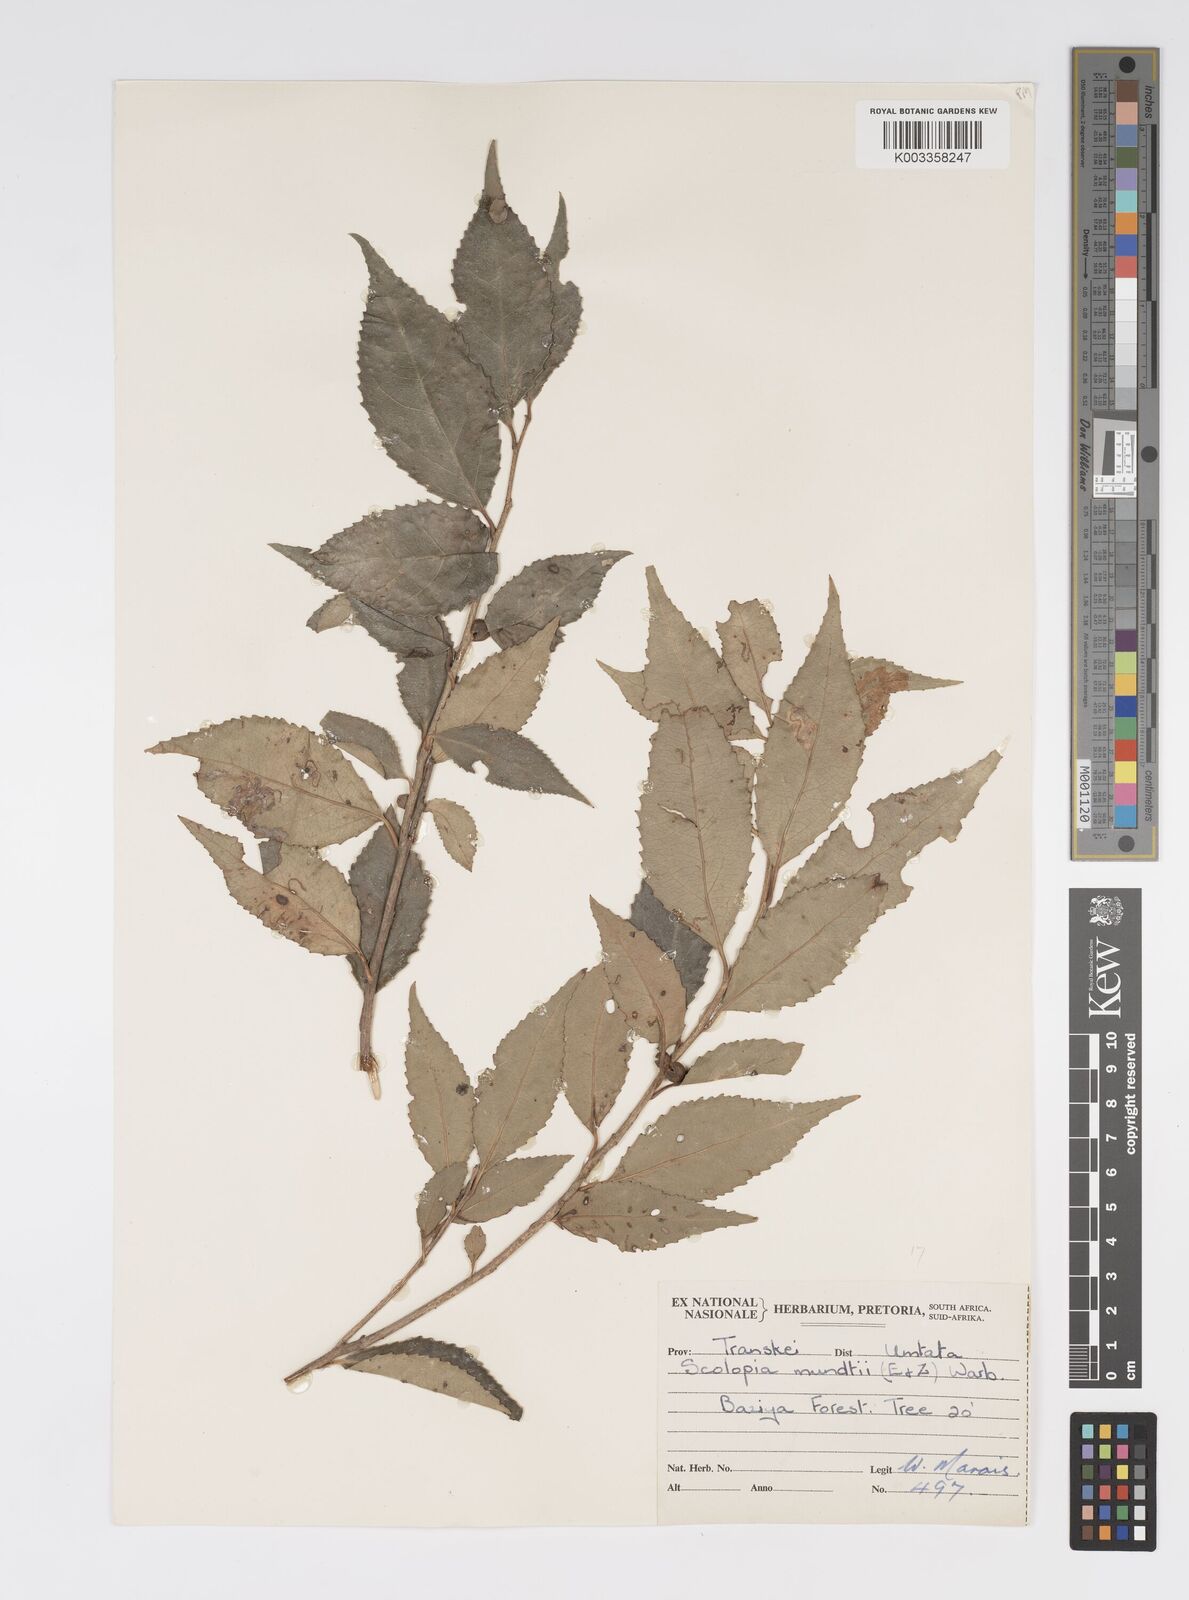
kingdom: Plantae
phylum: Tracheophyta
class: Magnoliopsida
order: Malpighiales
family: Salicaceae
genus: Scolopia
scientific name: Scolopia mundii
